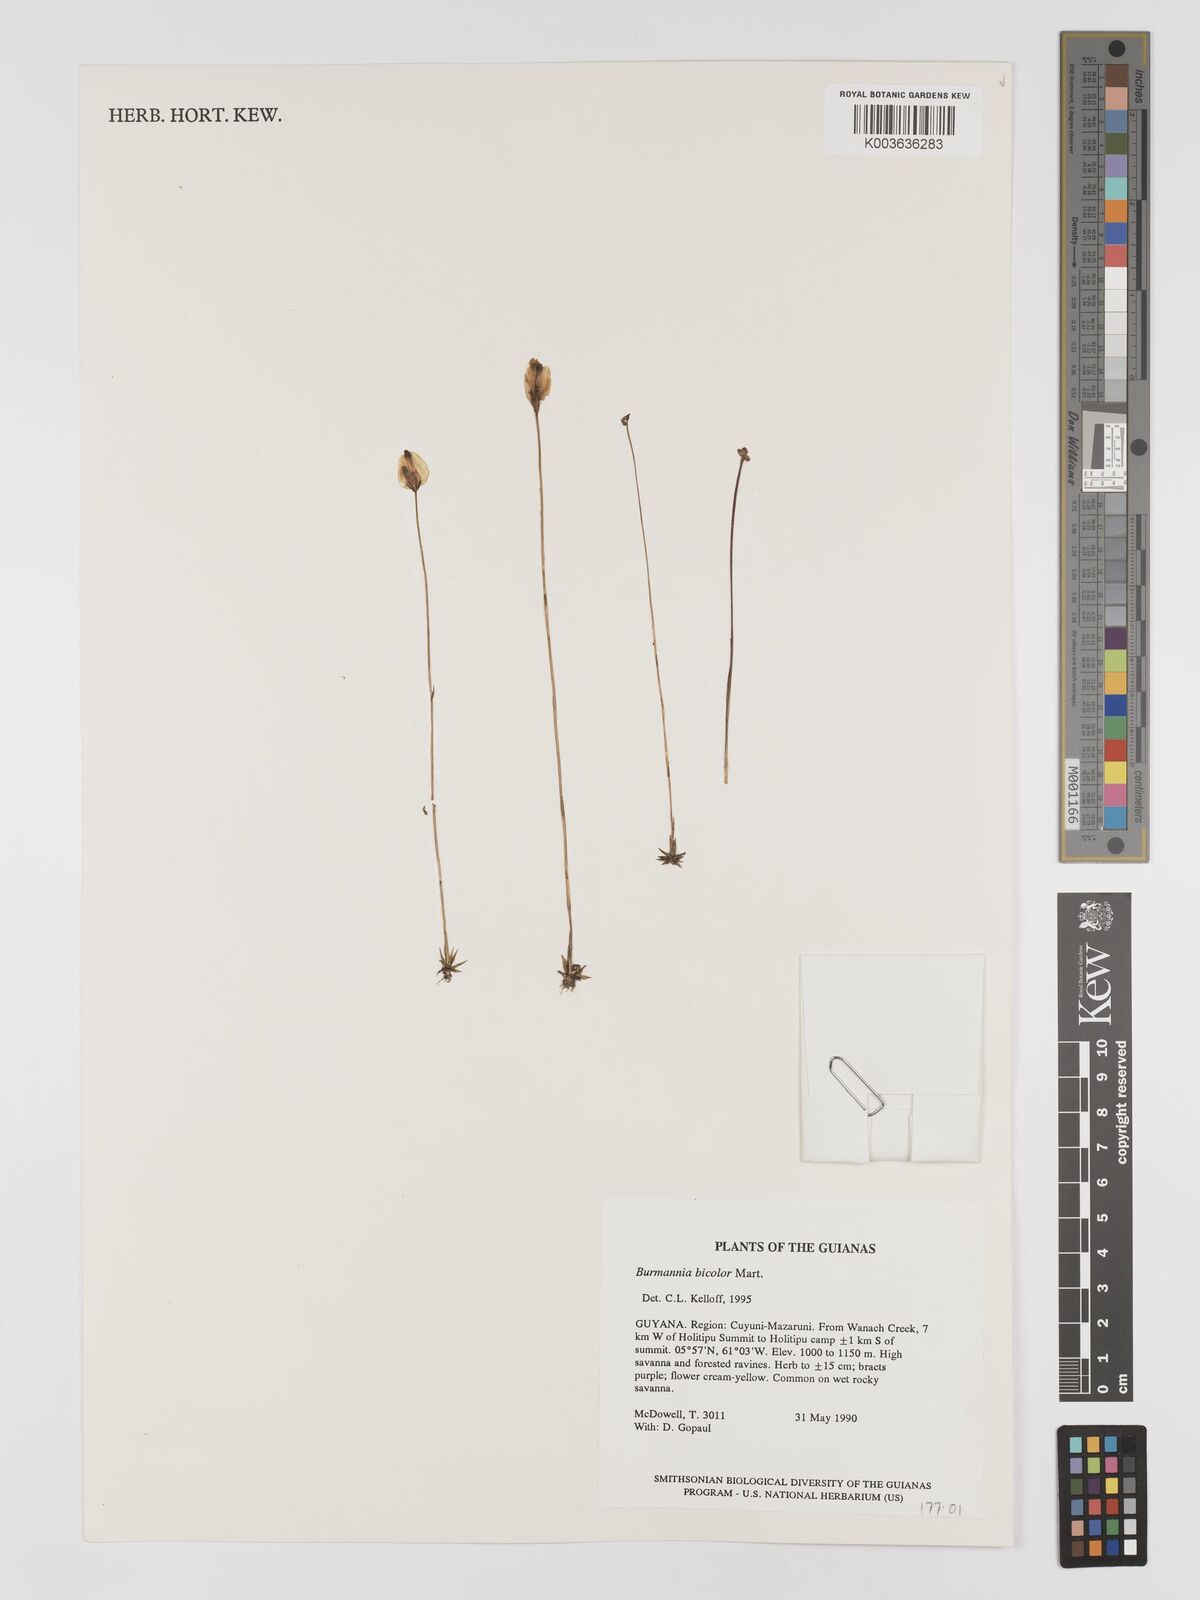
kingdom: Plantae
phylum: Tracheophyta
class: Liliopsida
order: Dioscoreales
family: Burmanniaceae
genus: Burmannia
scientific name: Burmannia bicolor
